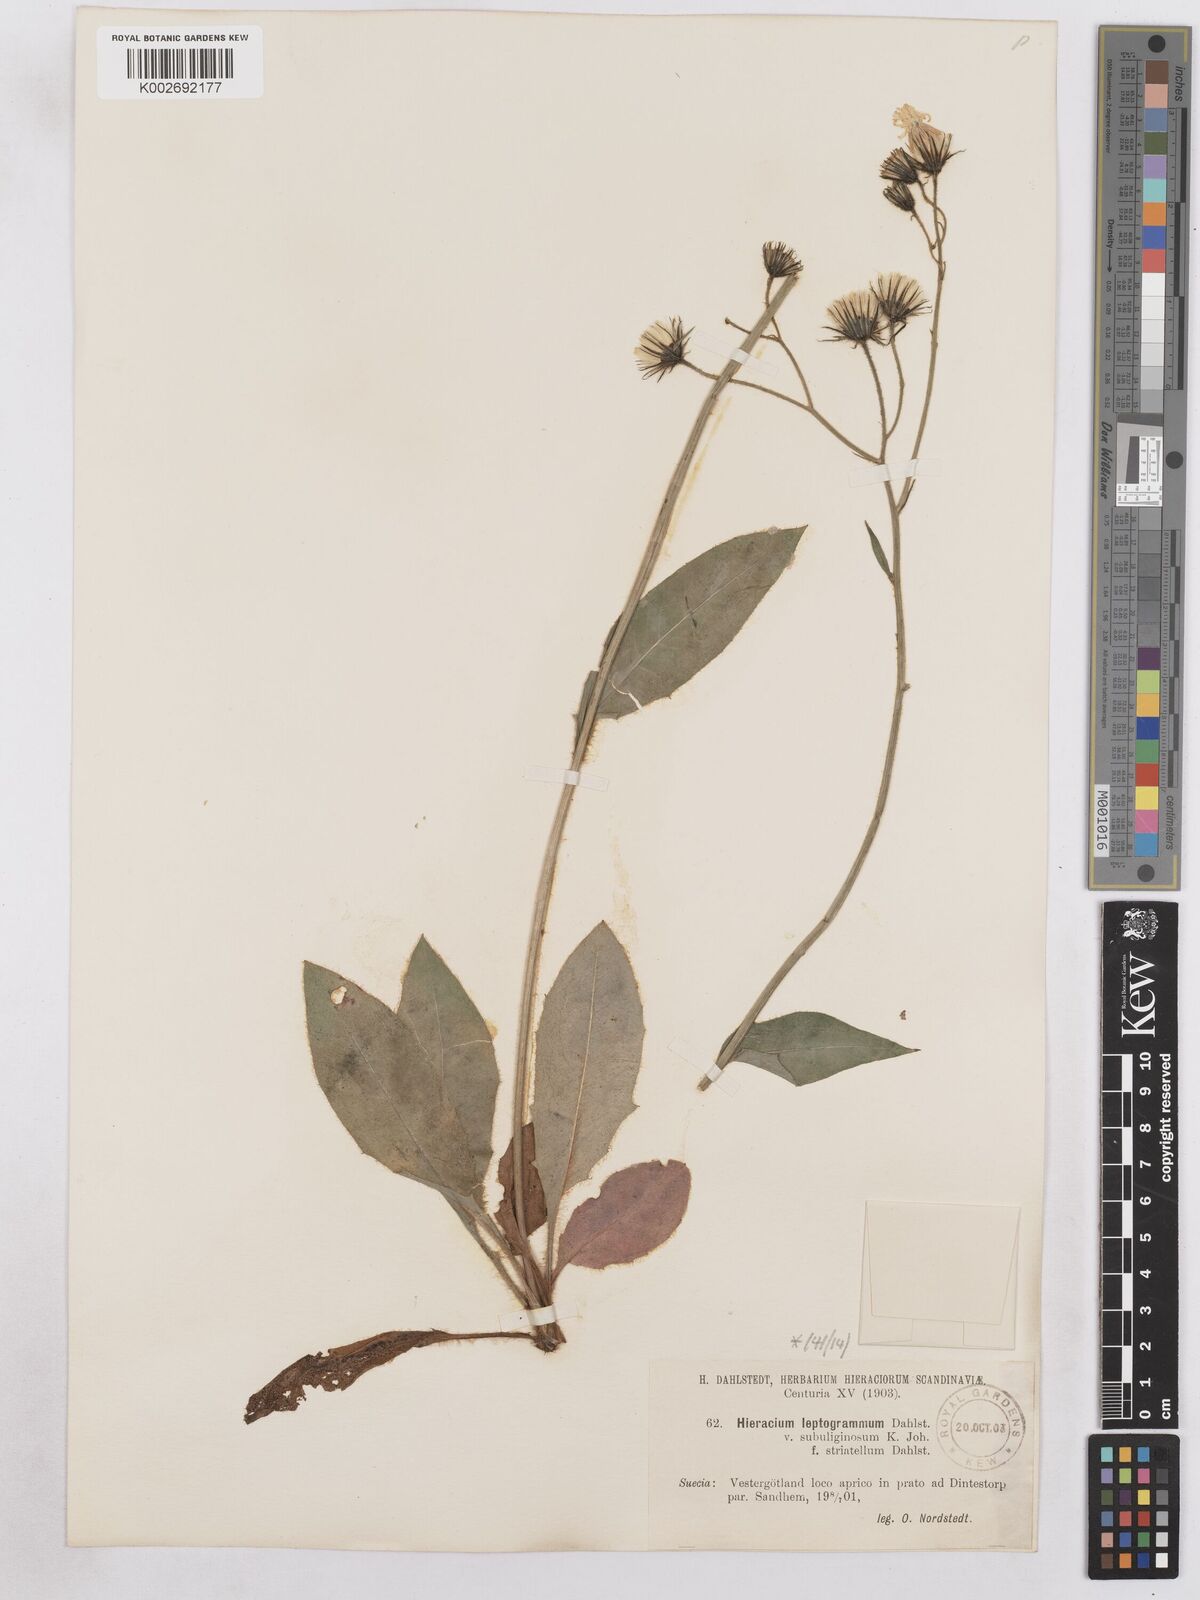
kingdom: Plantae
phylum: Tracheophyta
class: Magnoliopsida
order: Asterales
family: Asteraceae
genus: Hieracium
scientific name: Hieracium diaphanoides
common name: Fine-bracted hawkweed
